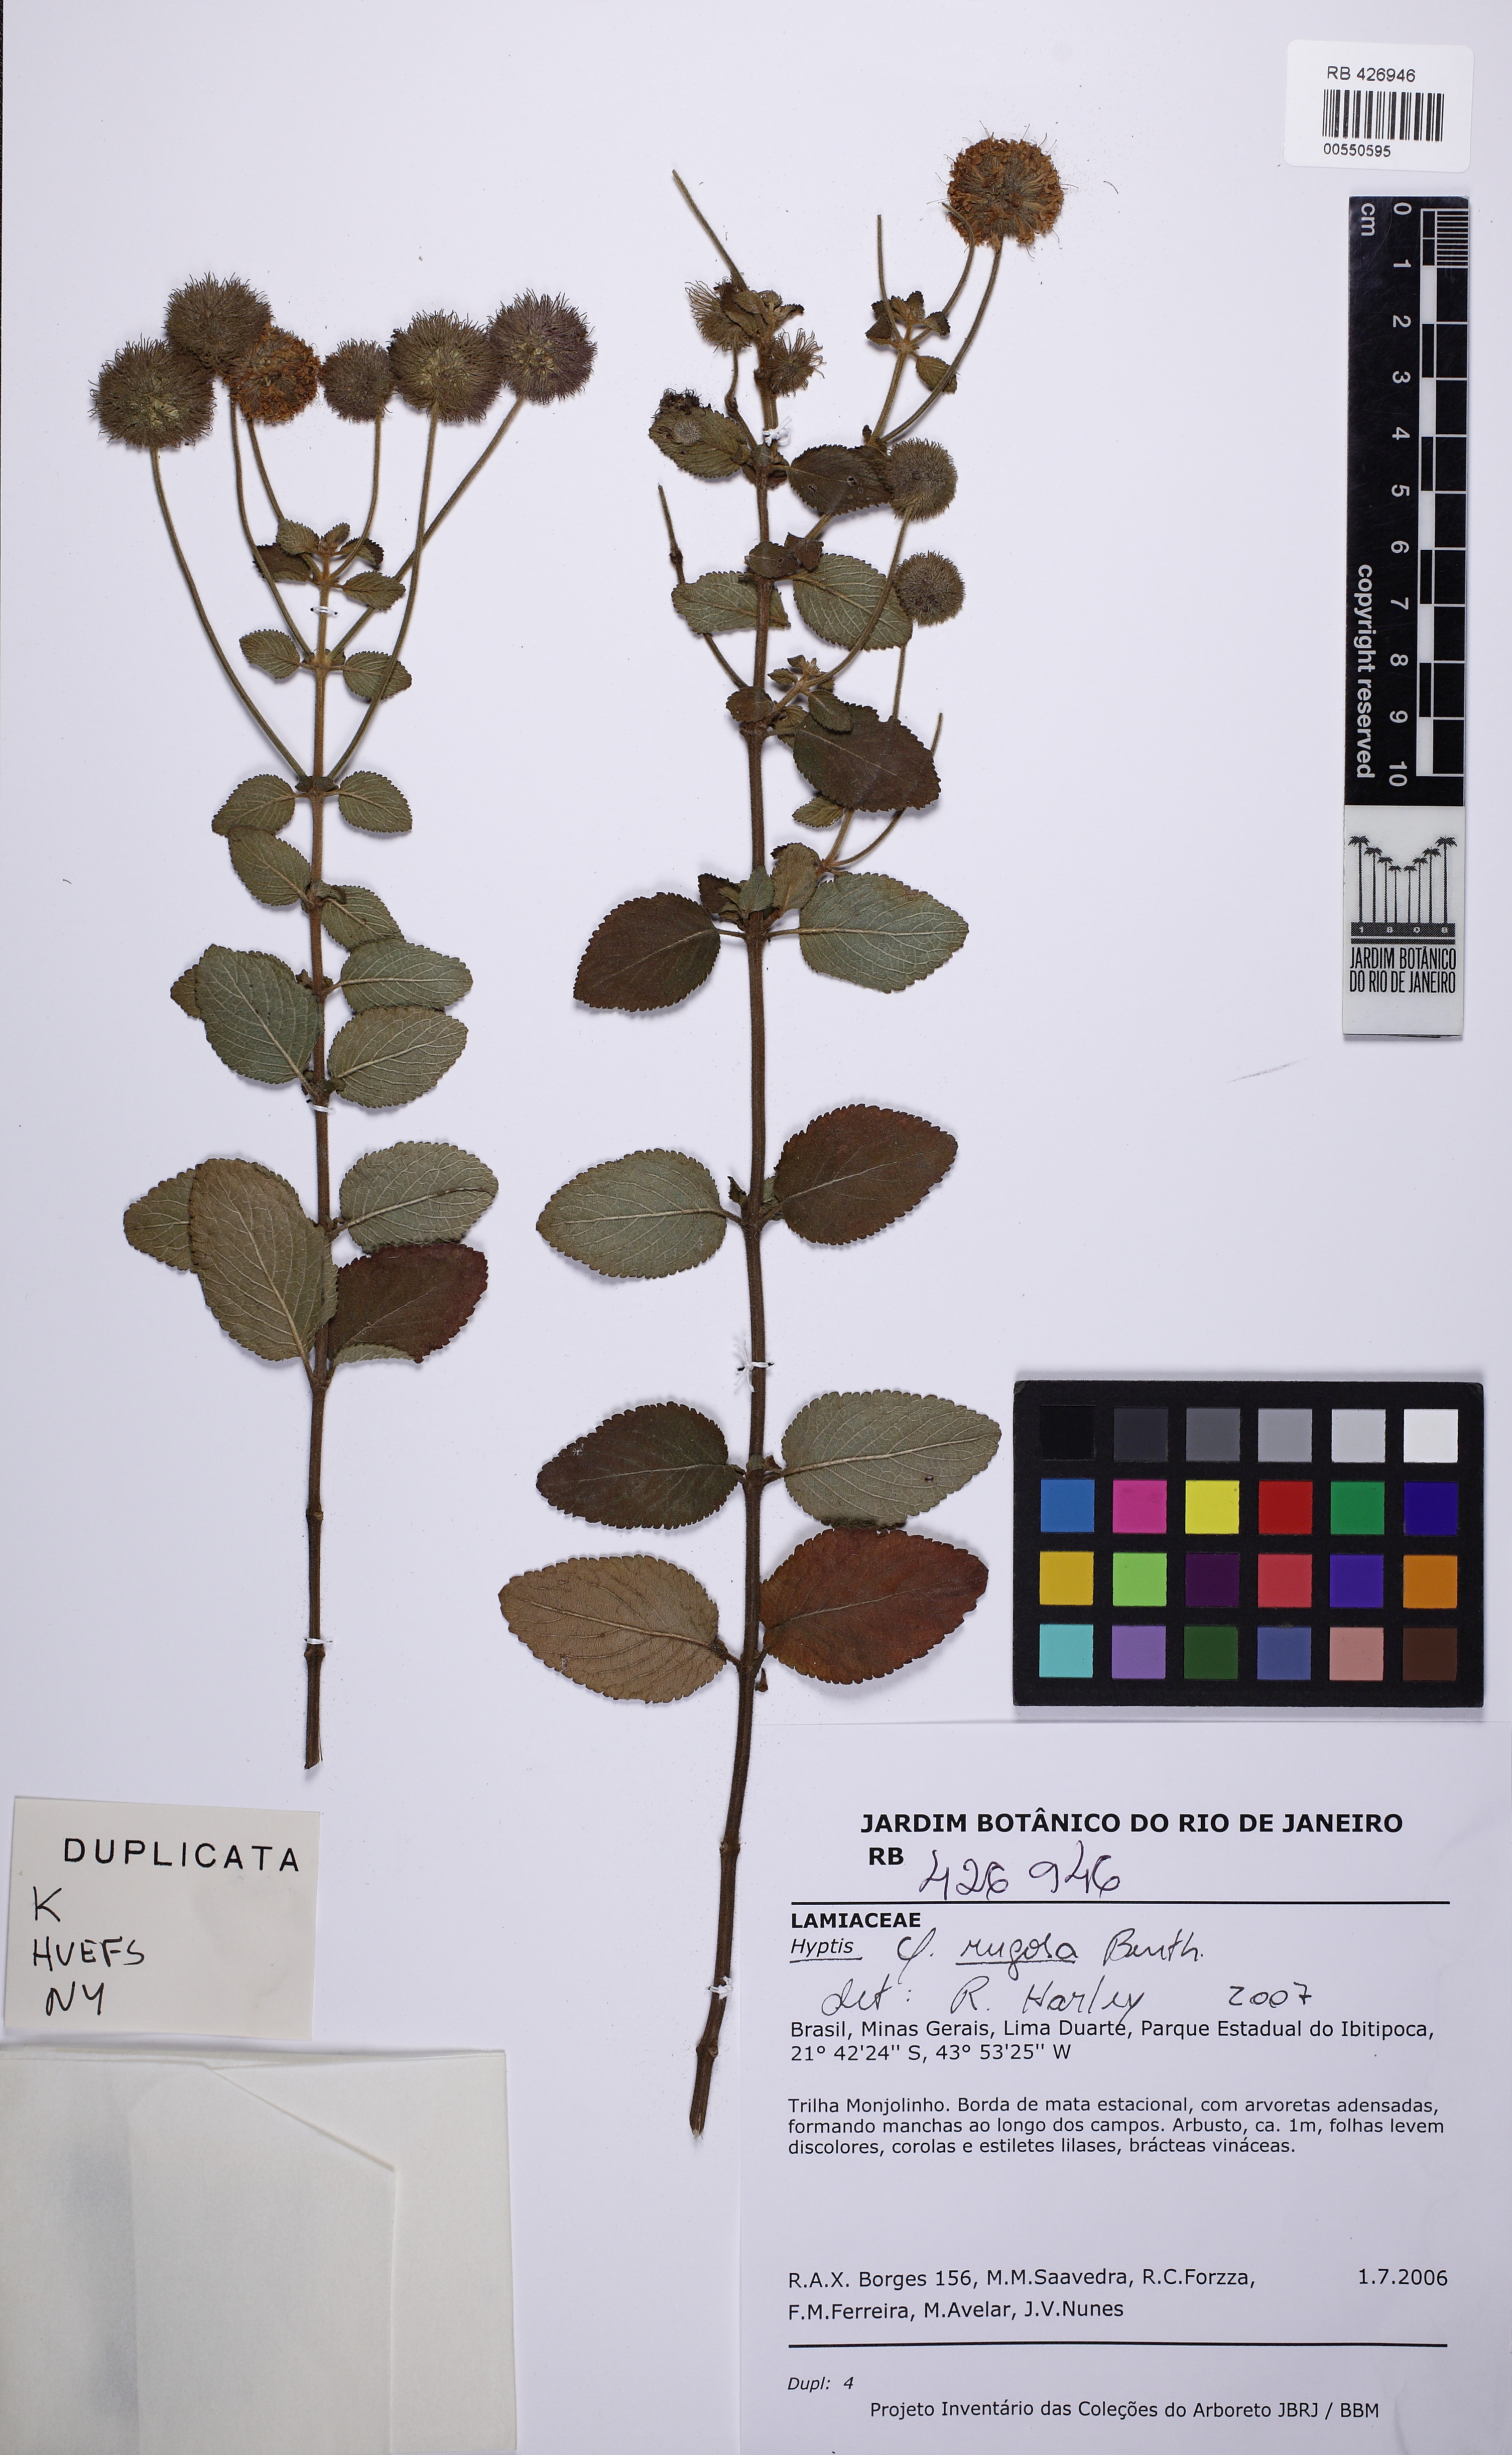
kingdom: Plantae
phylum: Tracheophyta
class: Magnoliopsida
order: Lamiales
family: Lamiaceae
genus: Cyanocephalus
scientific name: Cyanocephalus rugosus
